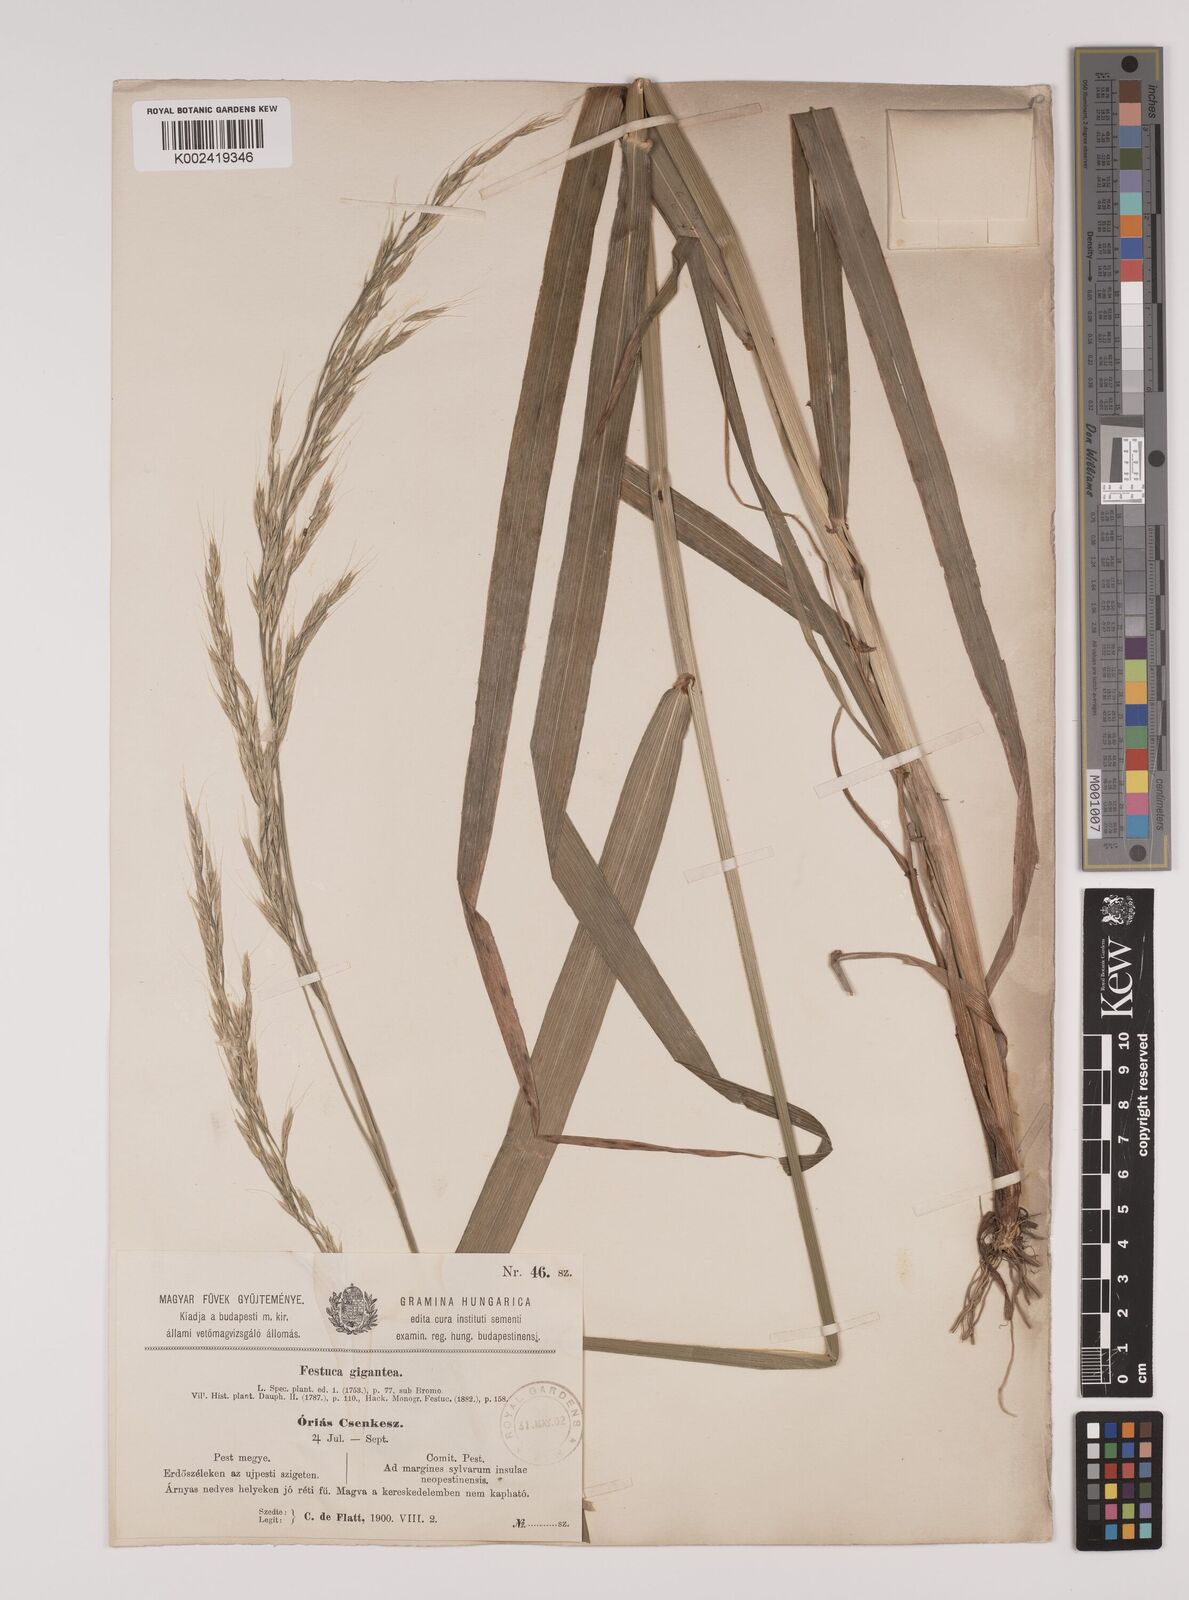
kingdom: Plantae
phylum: Tracheophyta
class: Liliopsida
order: Poales
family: Poaceae
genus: Lolium
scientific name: Lolium giganteum
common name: Giant fescue
